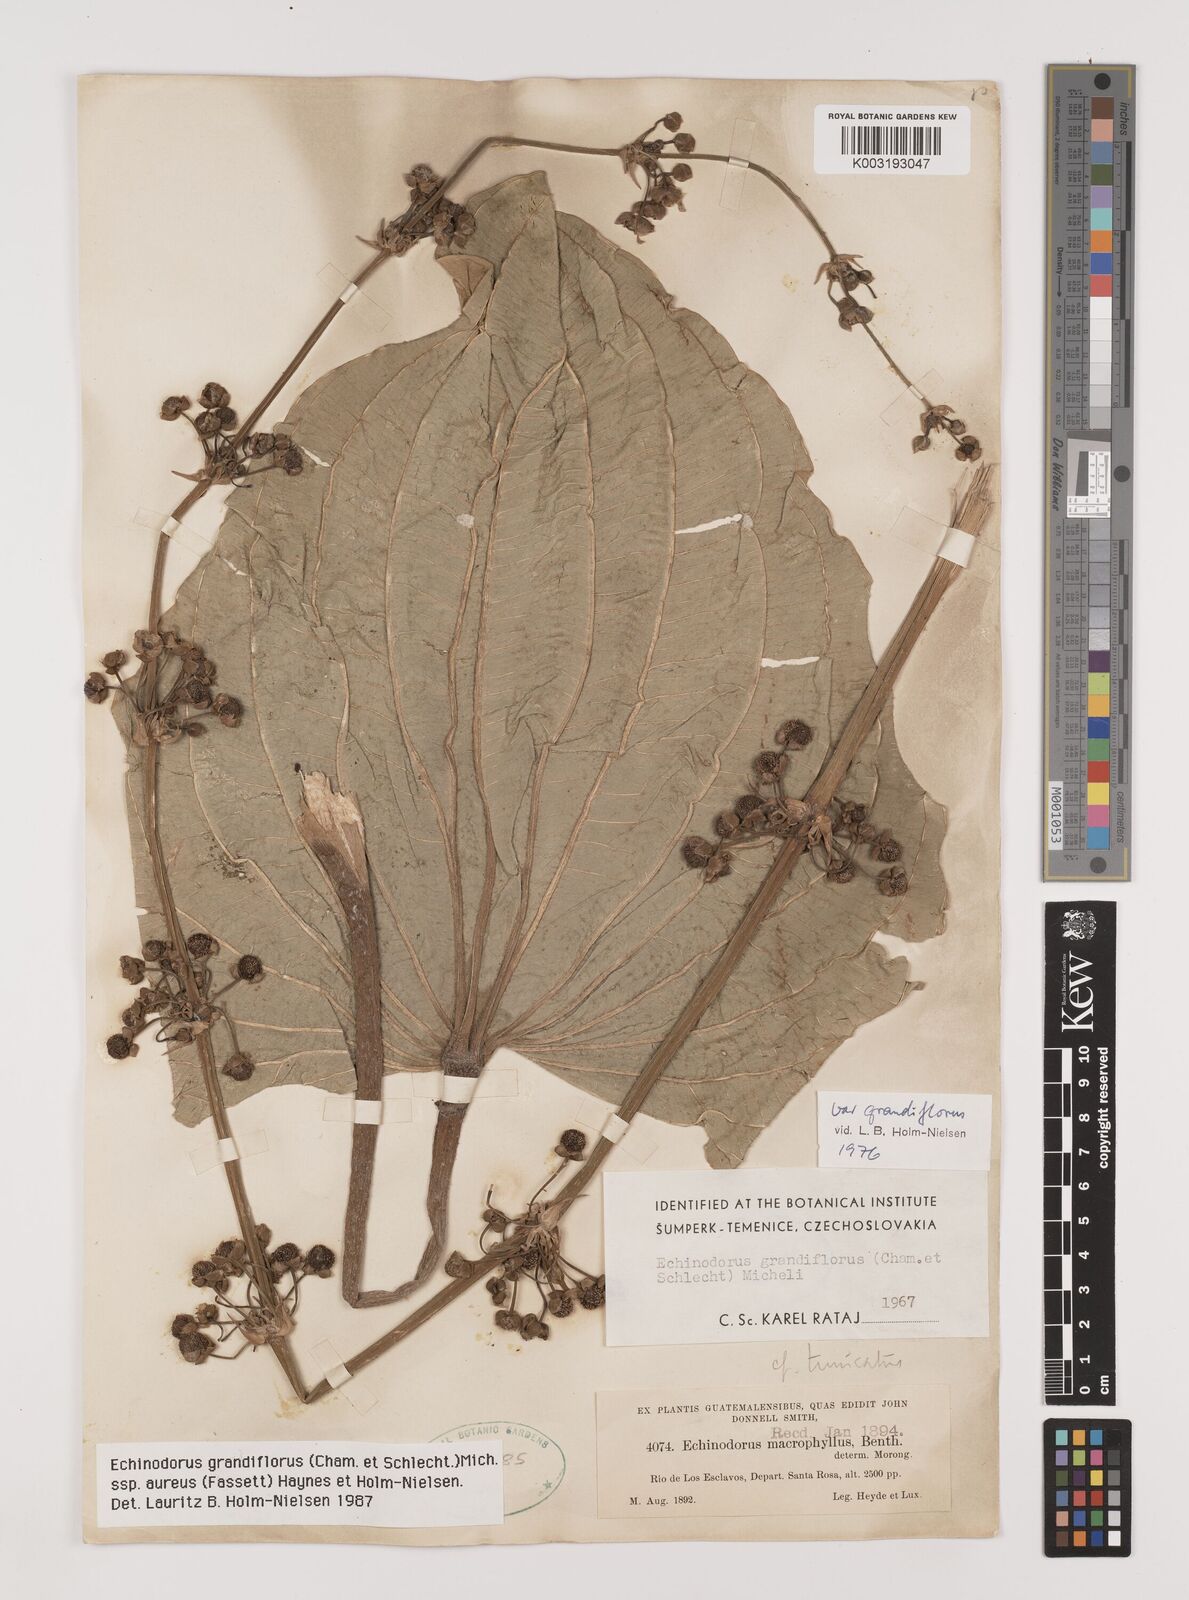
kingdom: Plantae
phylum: Tracheophyta
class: Liliopsida
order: Alismatales
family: Alismataceae
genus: Aquarius
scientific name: Aquarius grandiflorus
